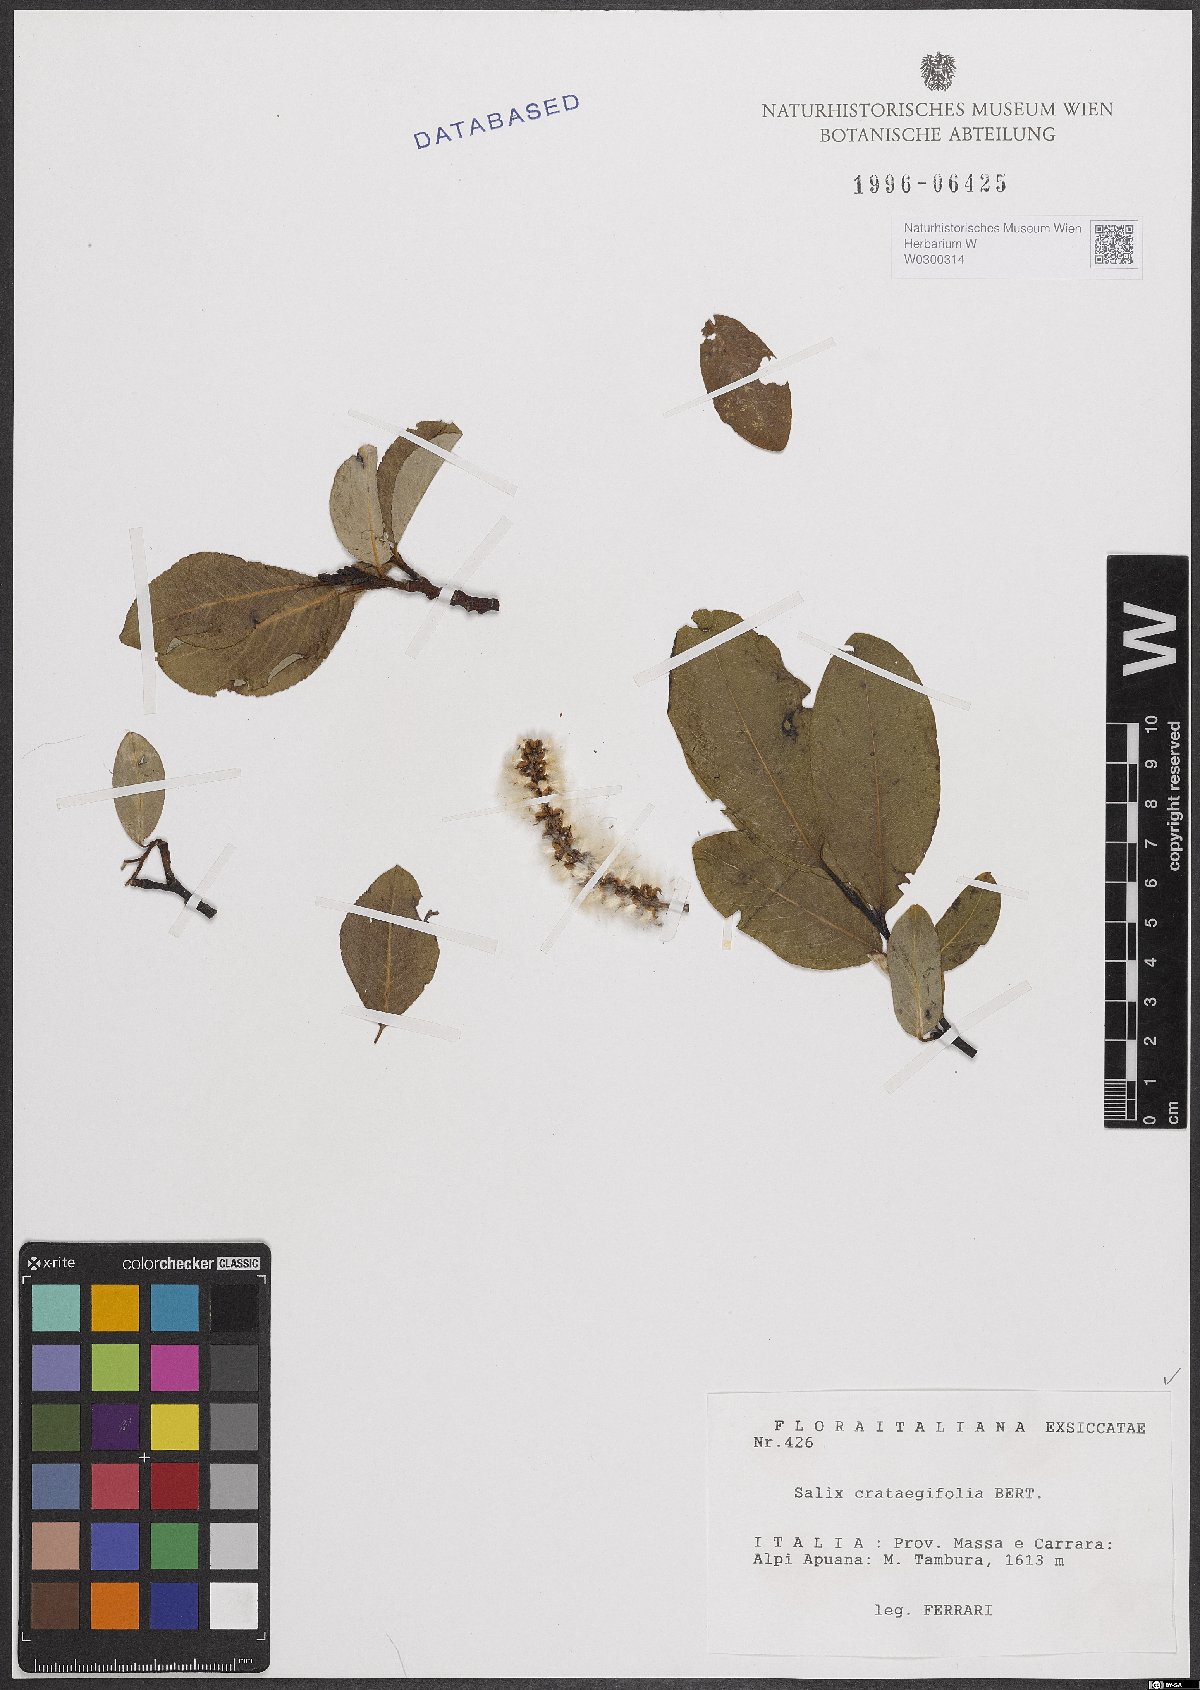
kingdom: Plantae
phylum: Tracheophyta
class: Magnoliopsida
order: Malpighiales
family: Salicaceae
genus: Salix
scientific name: Salix crataegifolia
